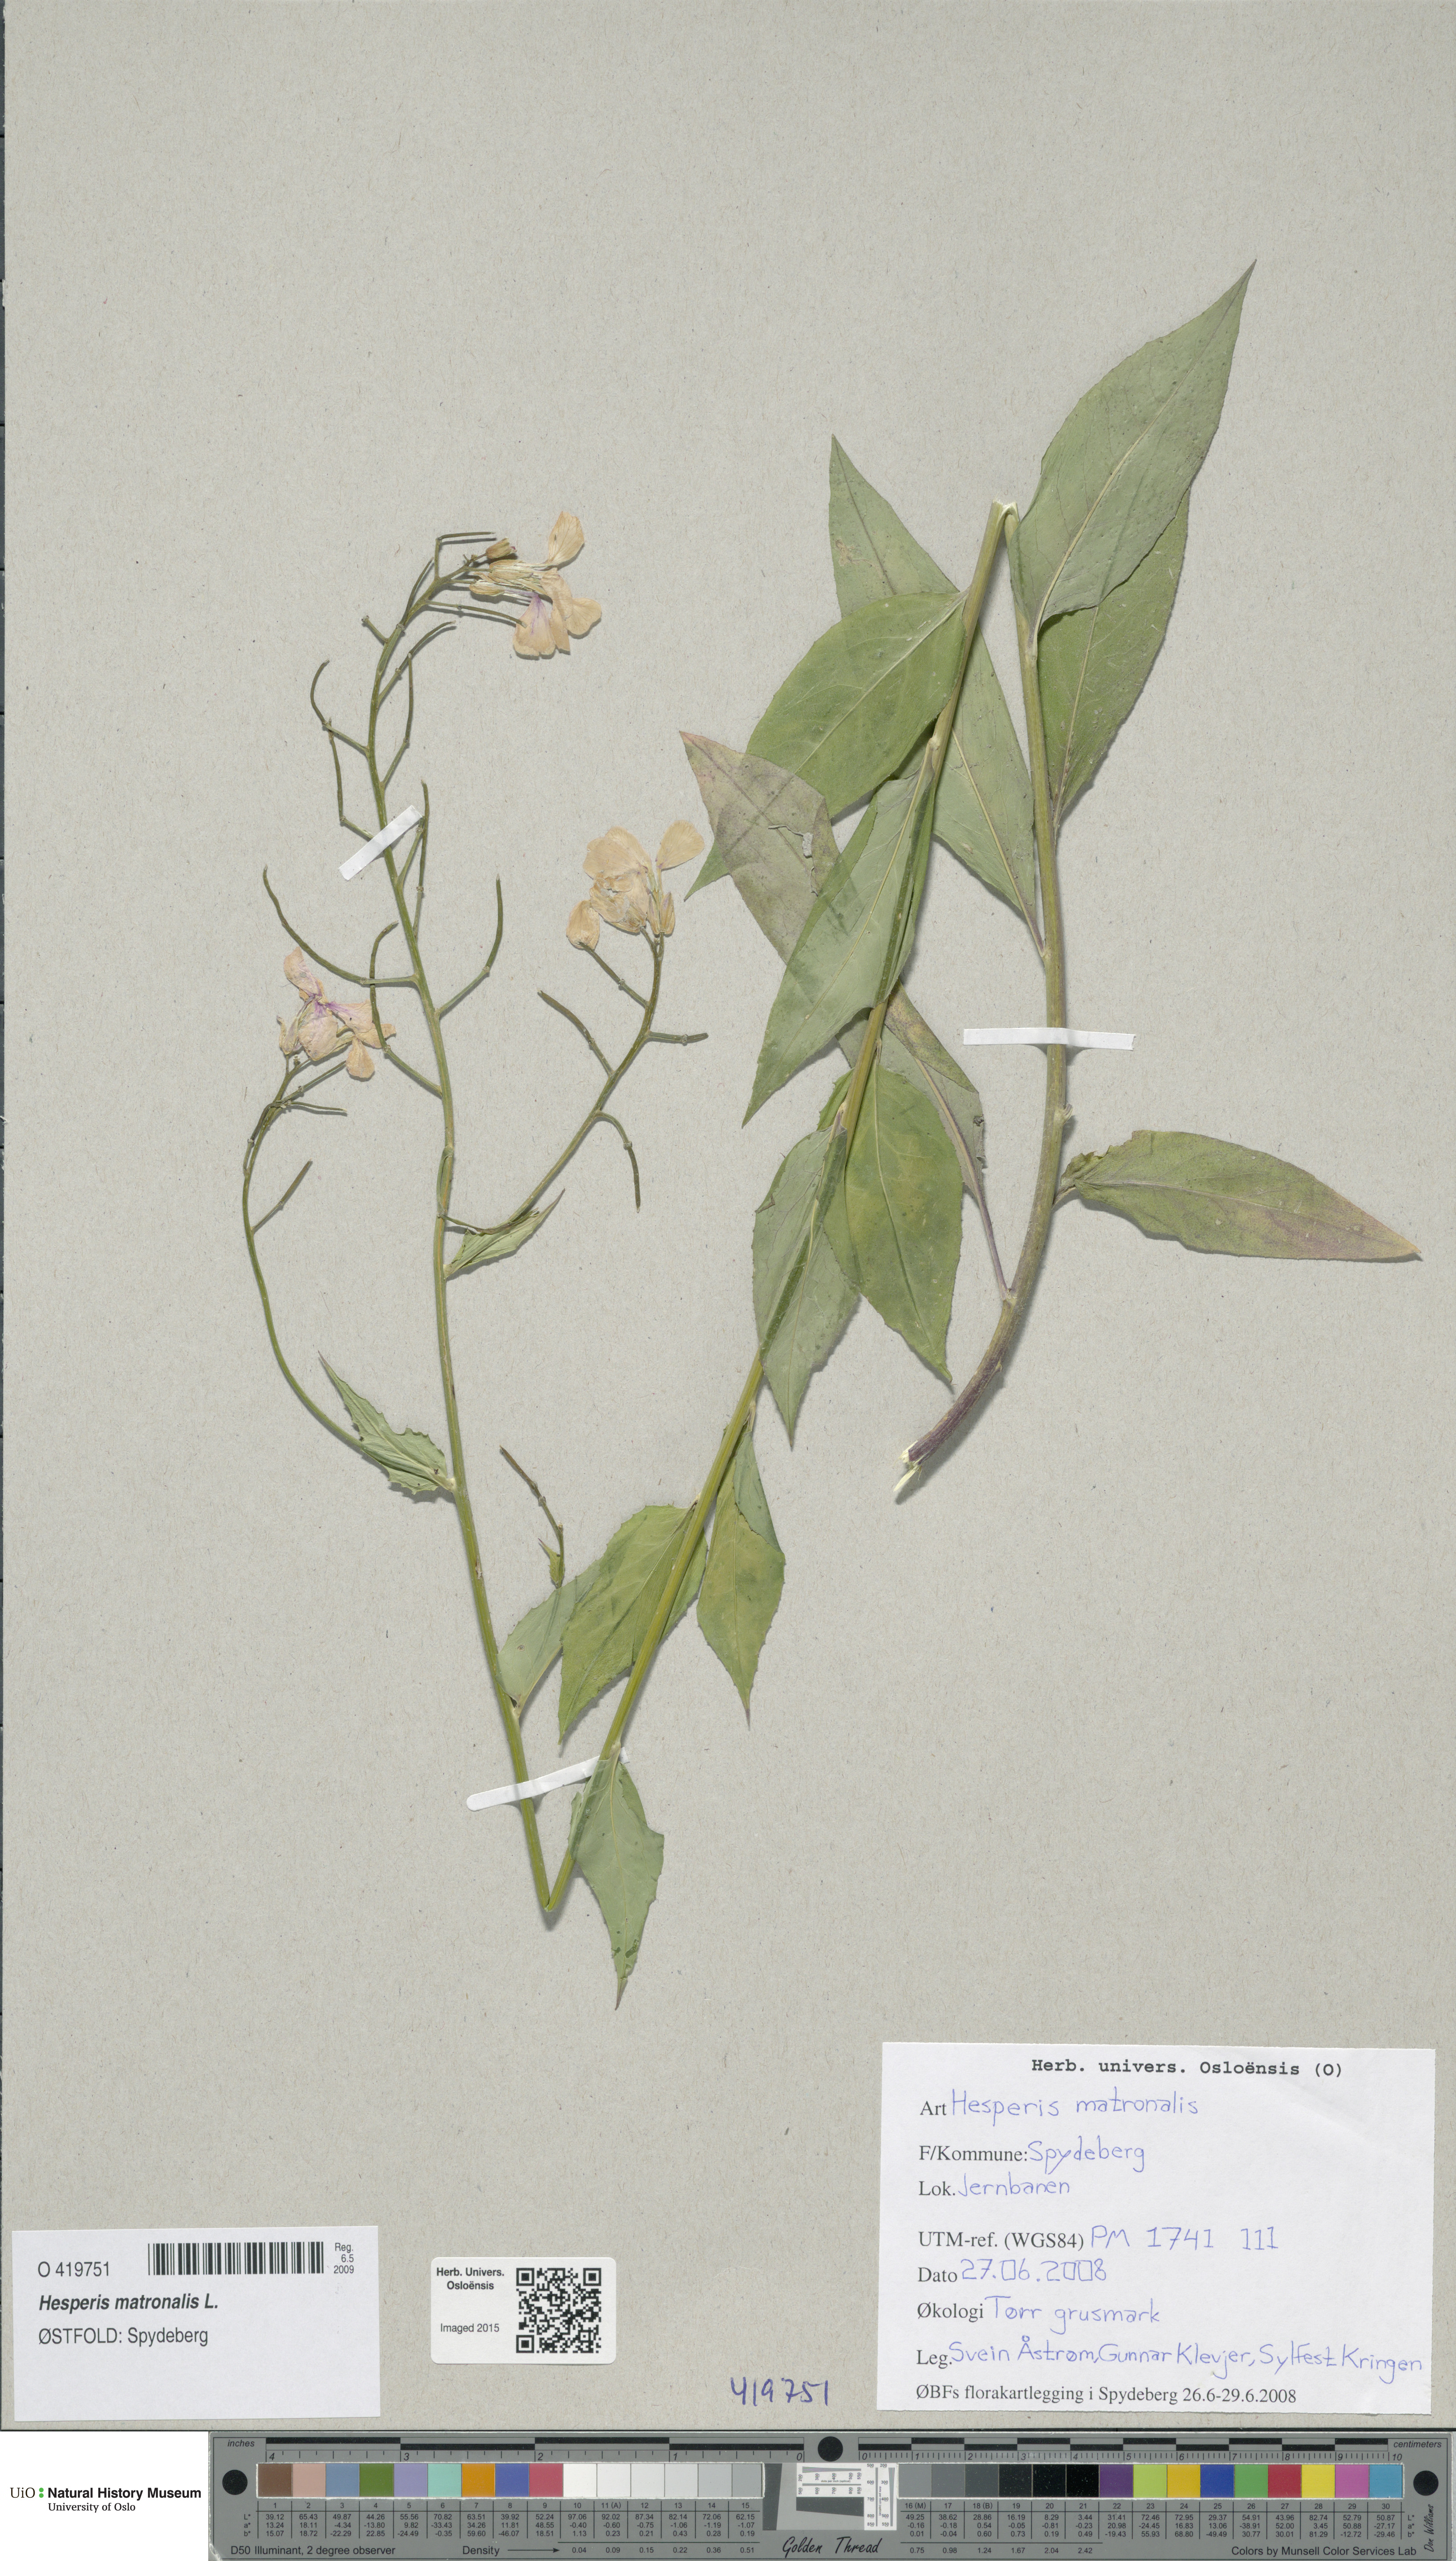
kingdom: Plantae
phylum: Tracheophyta
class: Magnoliopsida
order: Brassicales
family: Brassicaceae
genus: Hesperis
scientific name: Hesperis matronalis
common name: Dame's-violet
